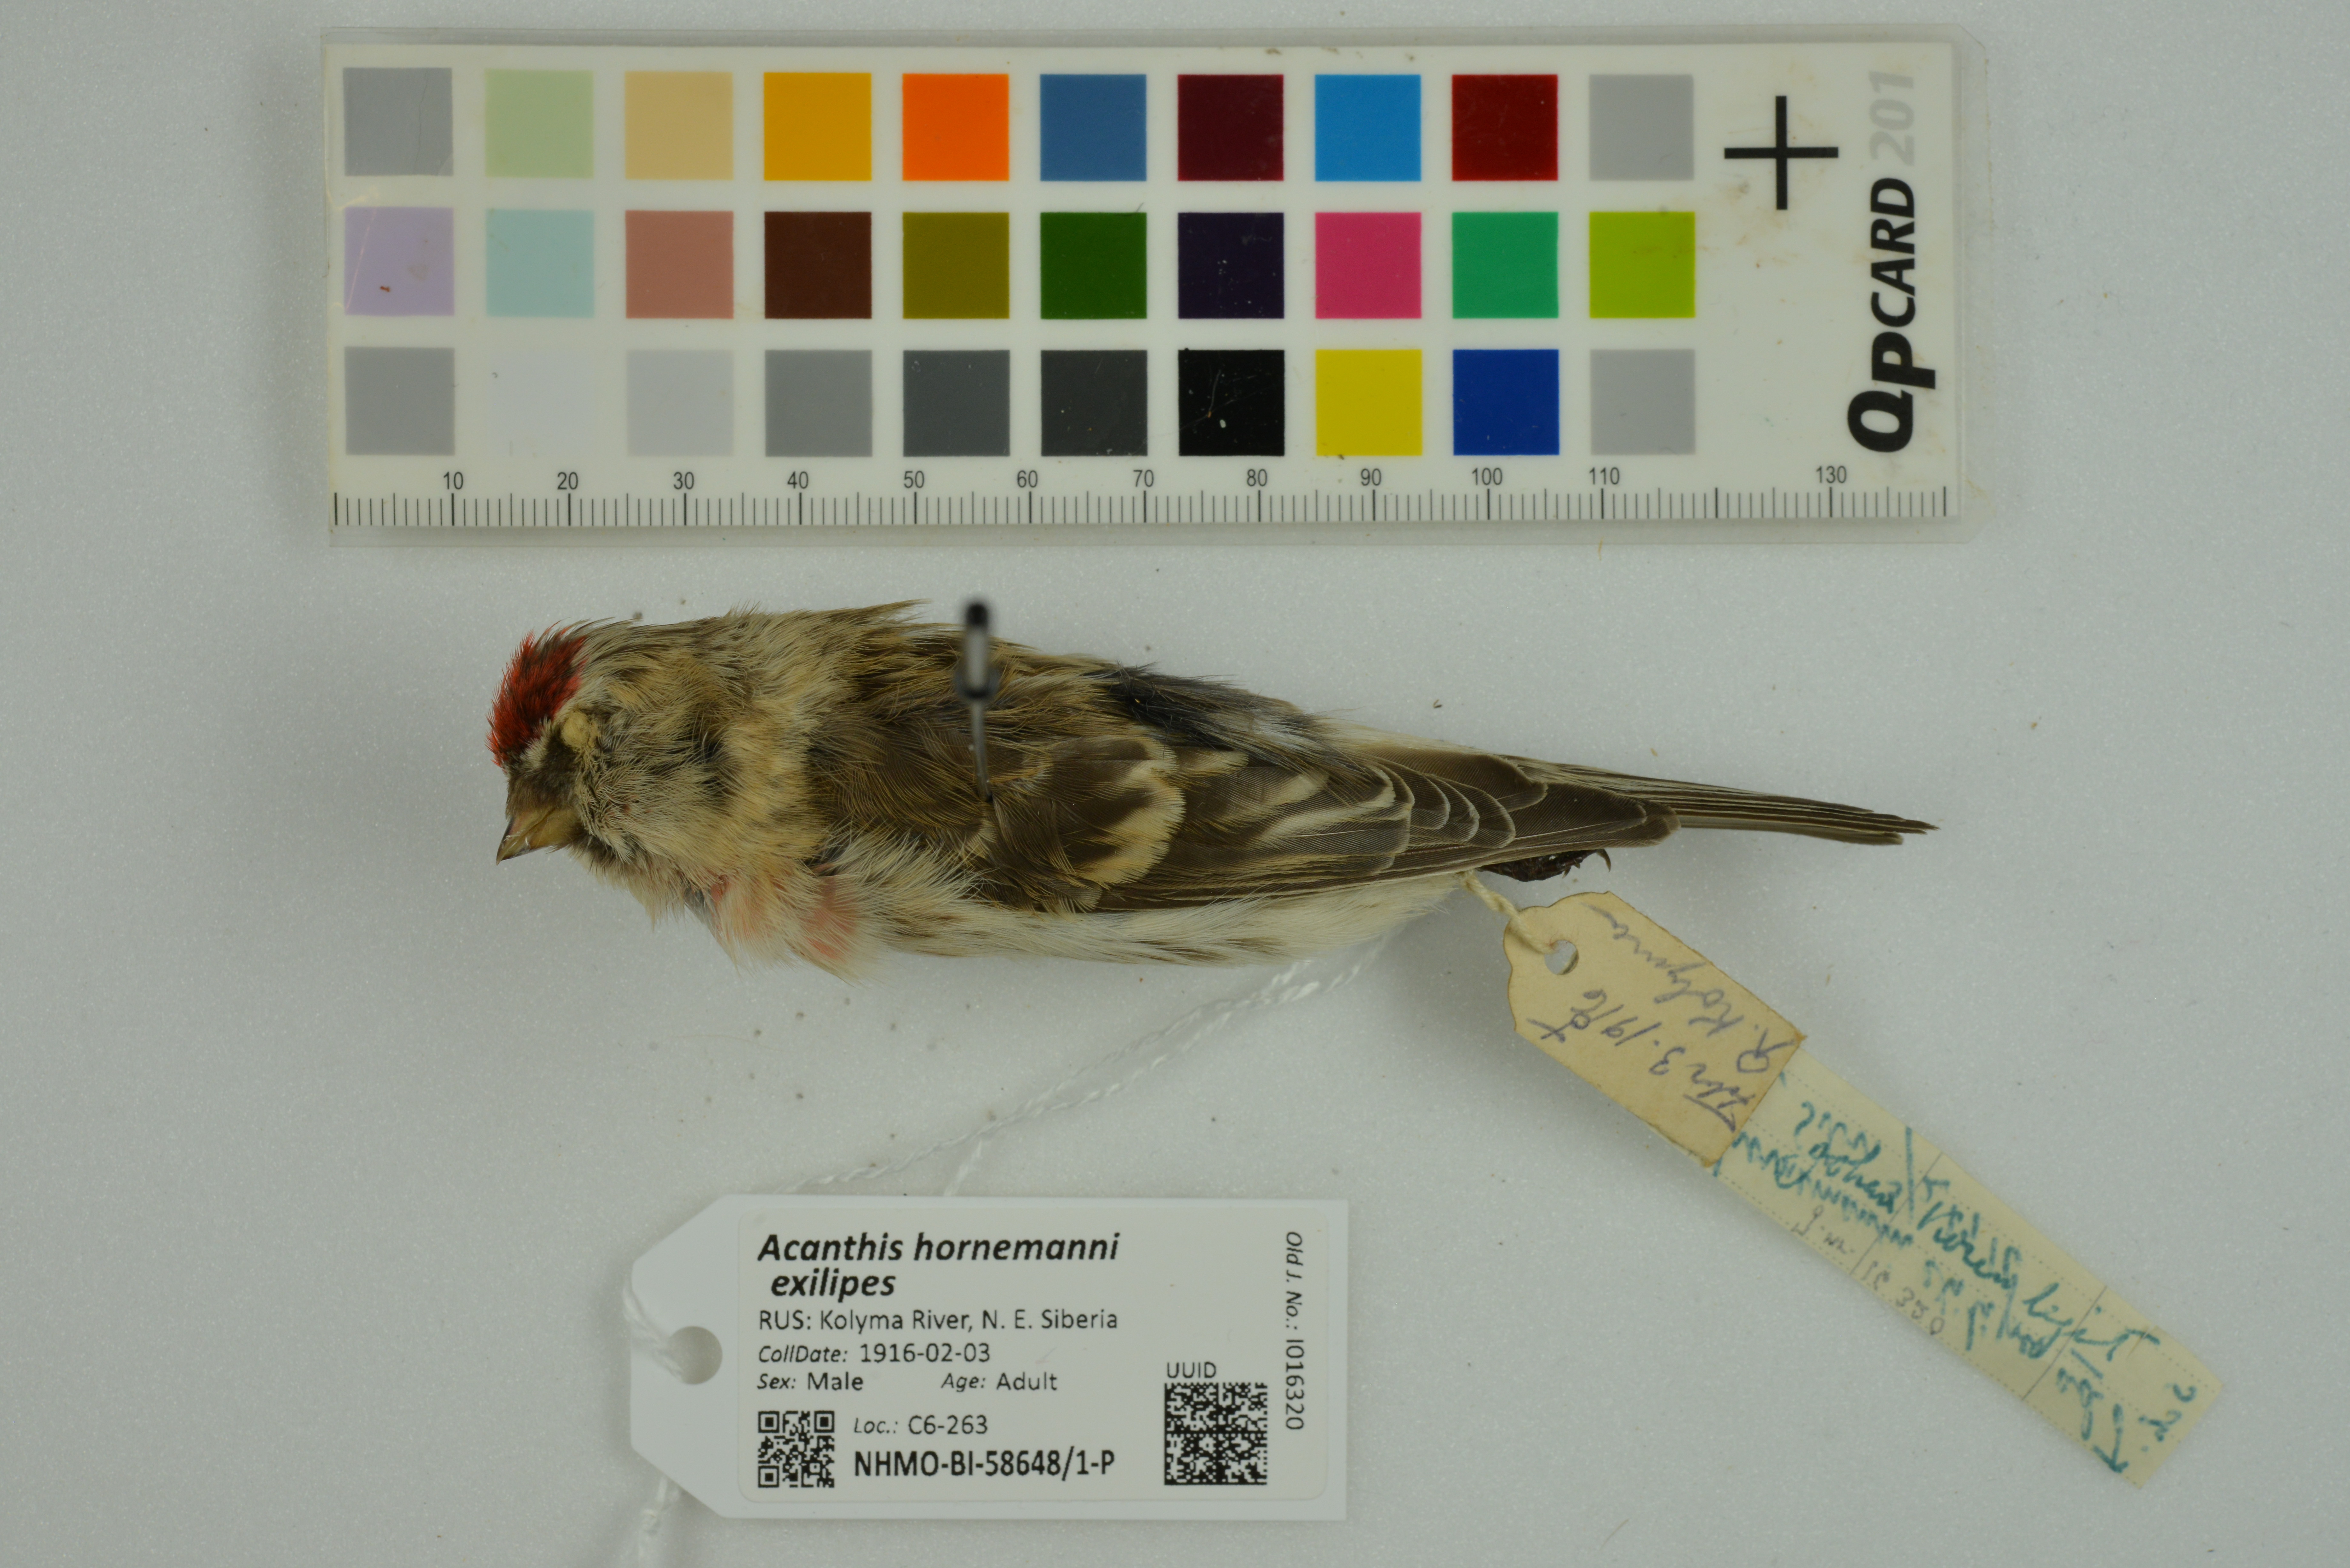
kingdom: Animalia
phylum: Chordata
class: Aves
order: Passeriformes
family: Fringillidae
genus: Acanthis
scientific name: Acanthis hornemanni
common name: Arctic redpoll
